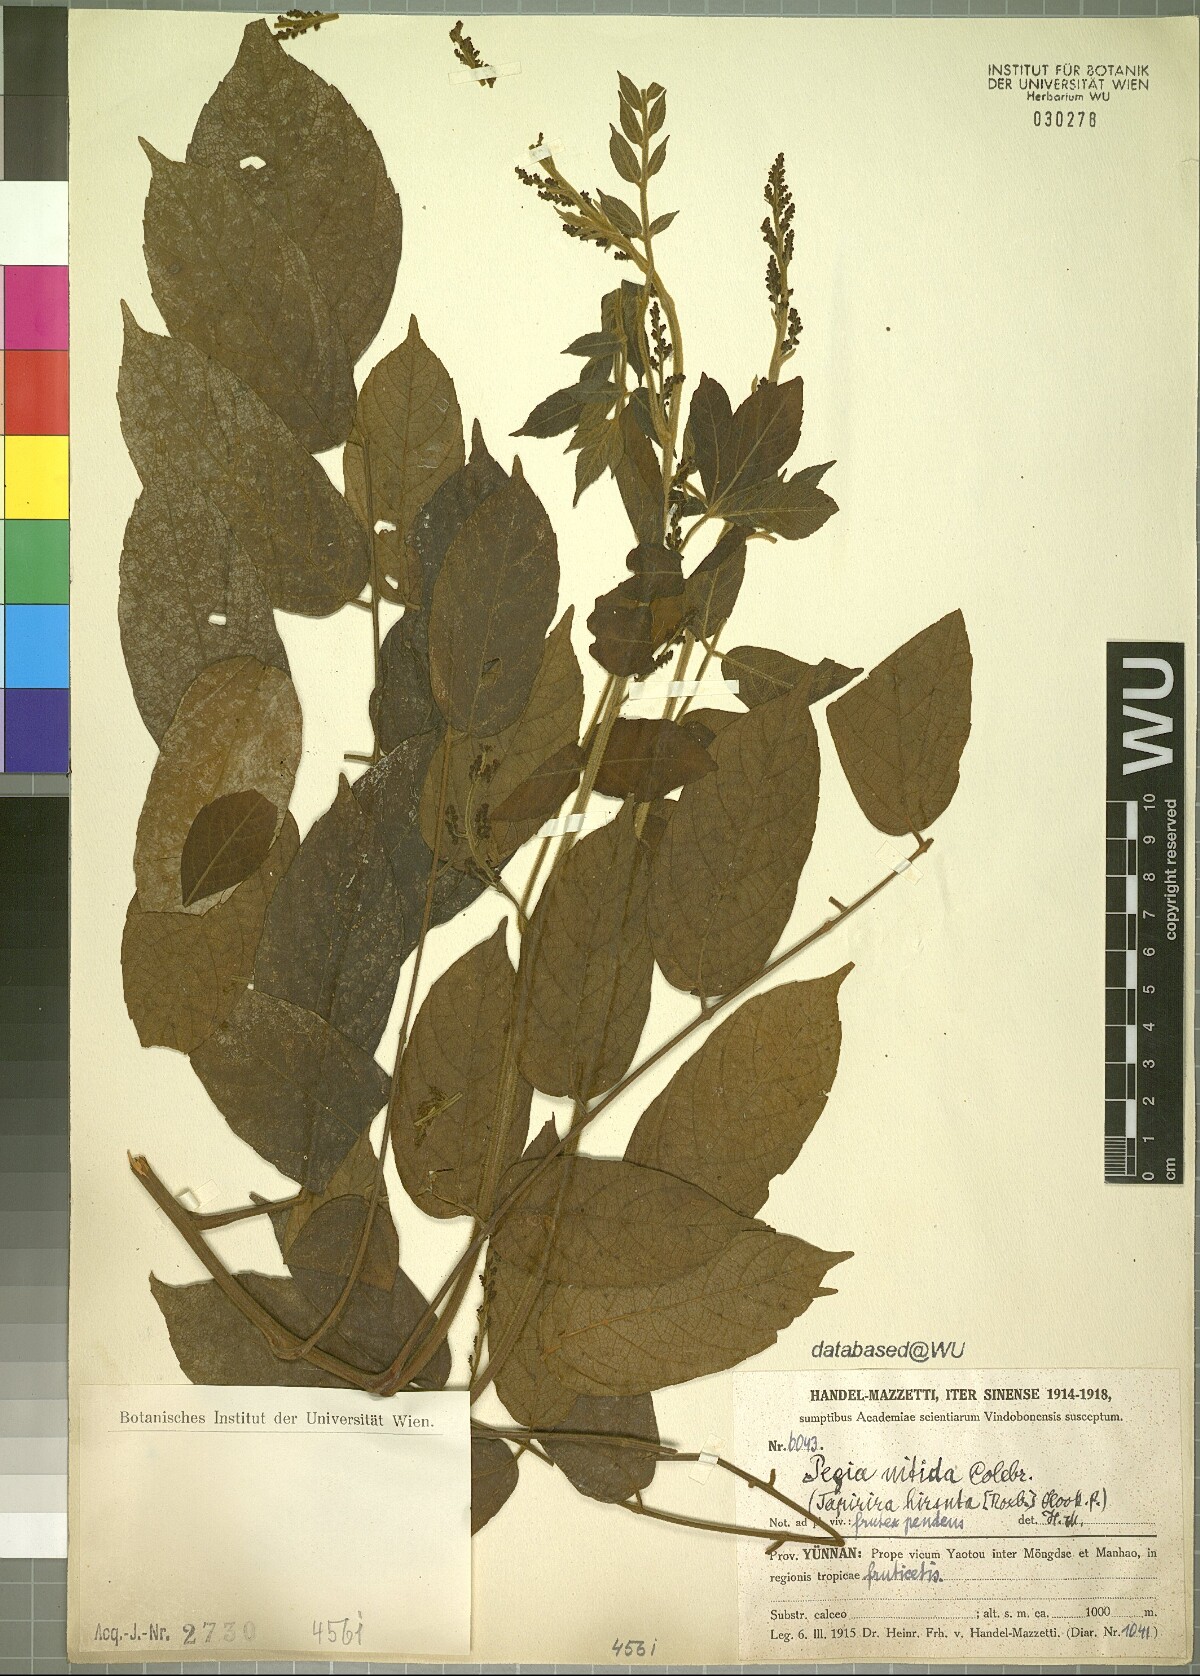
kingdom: Plantae
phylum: Tracheophyta
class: Magnoliopsida
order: Sapindales
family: Anacardiaceae
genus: Pegia
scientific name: Pegia nitida
